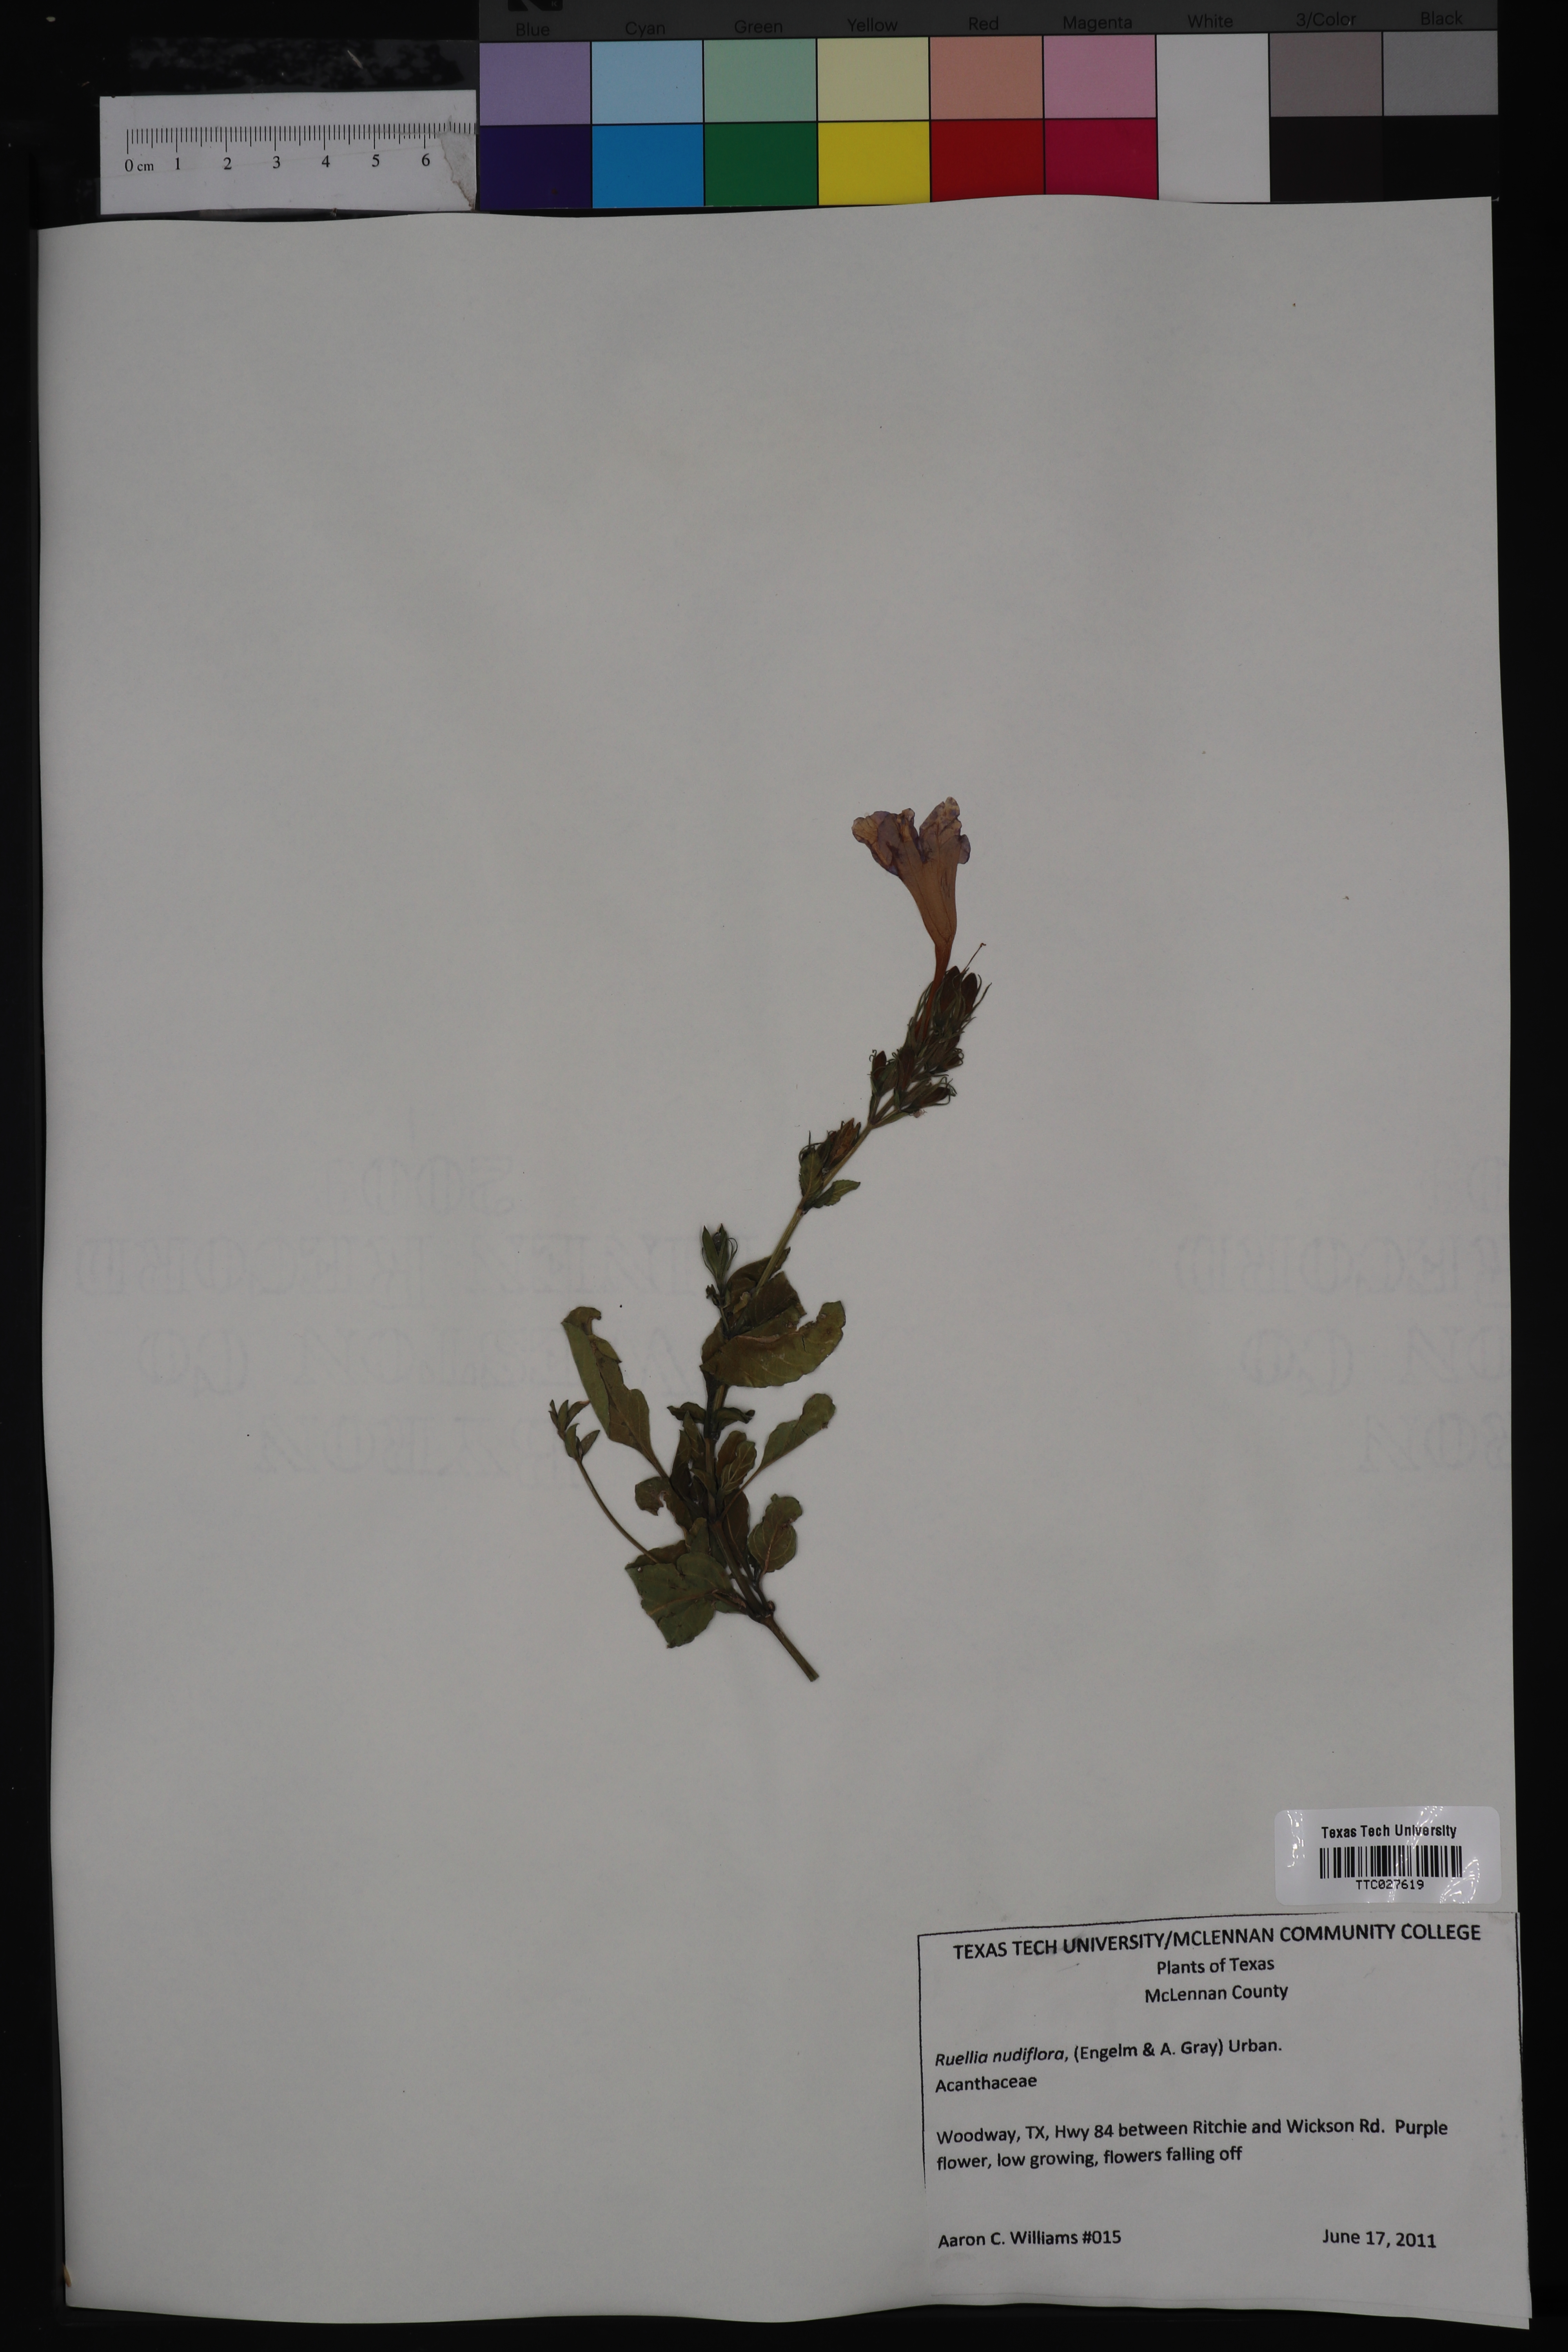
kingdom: Plantae
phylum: Tracheophyta
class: Magnoliopsida
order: Lamiales
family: Acanthaceae
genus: Ruellia
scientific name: Ruellia ciliatiflora
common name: Hairyflower wild petunia
